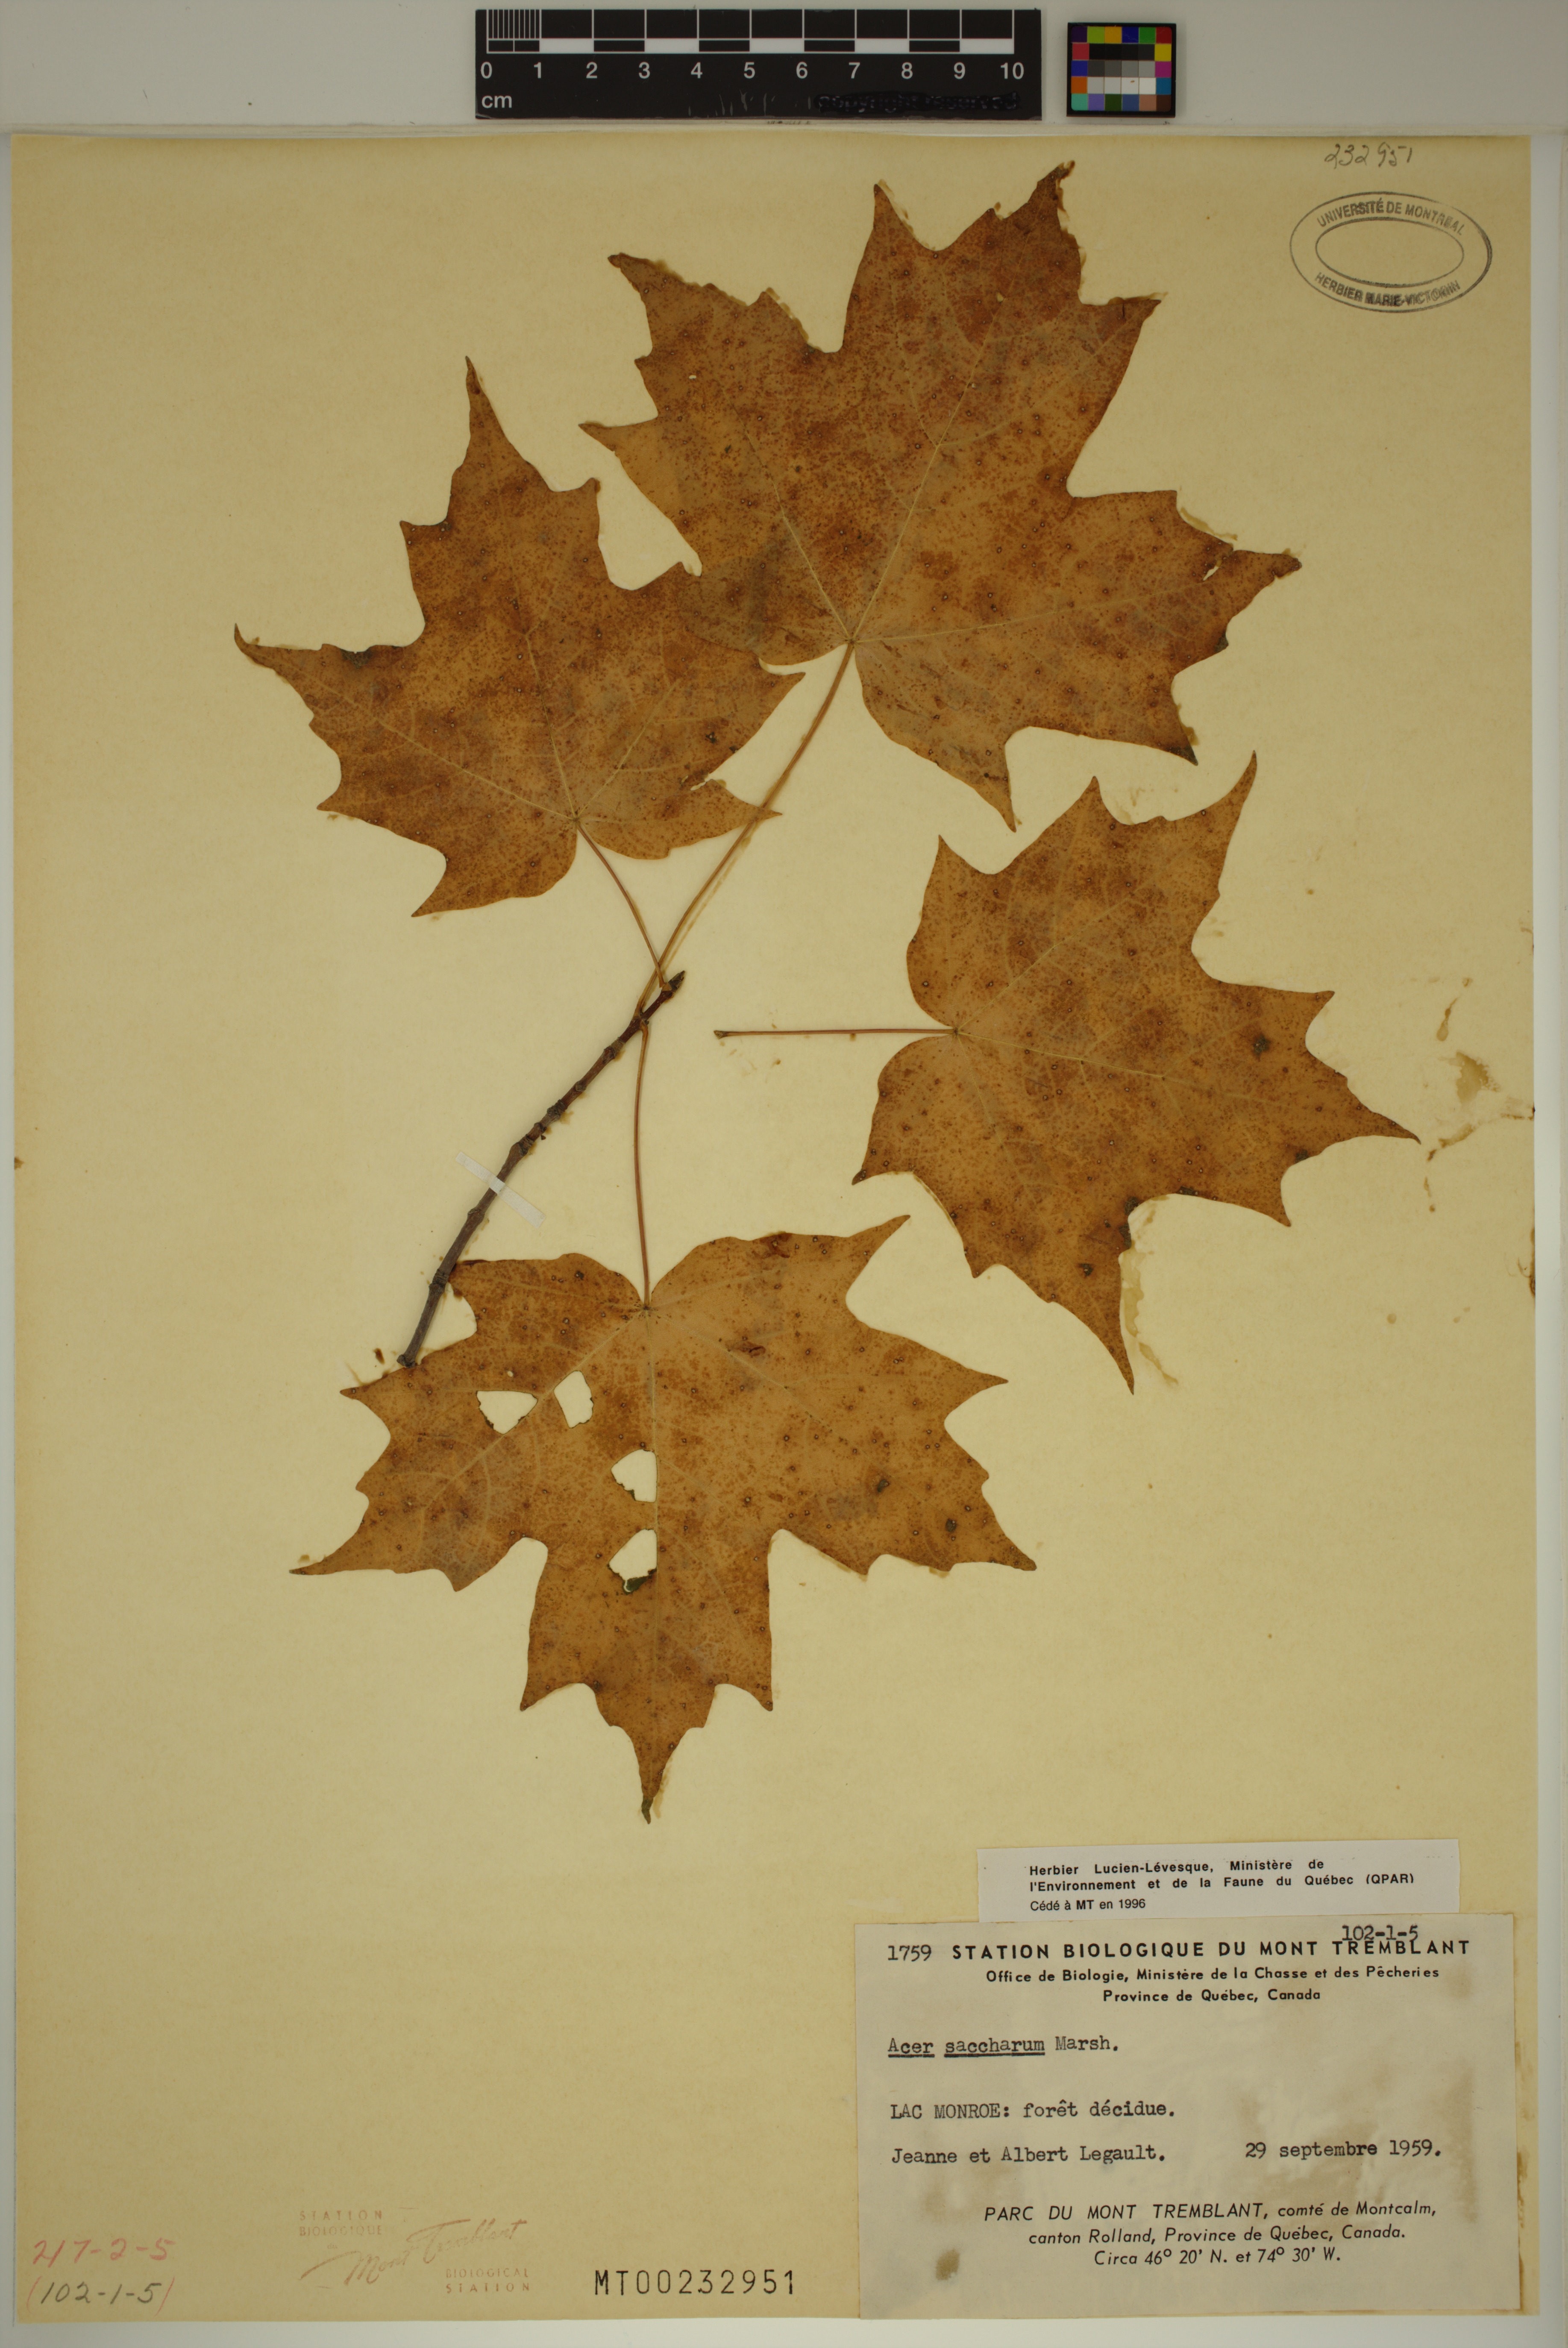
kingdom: Plantae
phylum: Tracheophyta
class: Magnoliopsida
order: Sapindales
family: Sapindaceae
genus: Acer
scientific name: Acer saccharum
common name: Sugar maple
